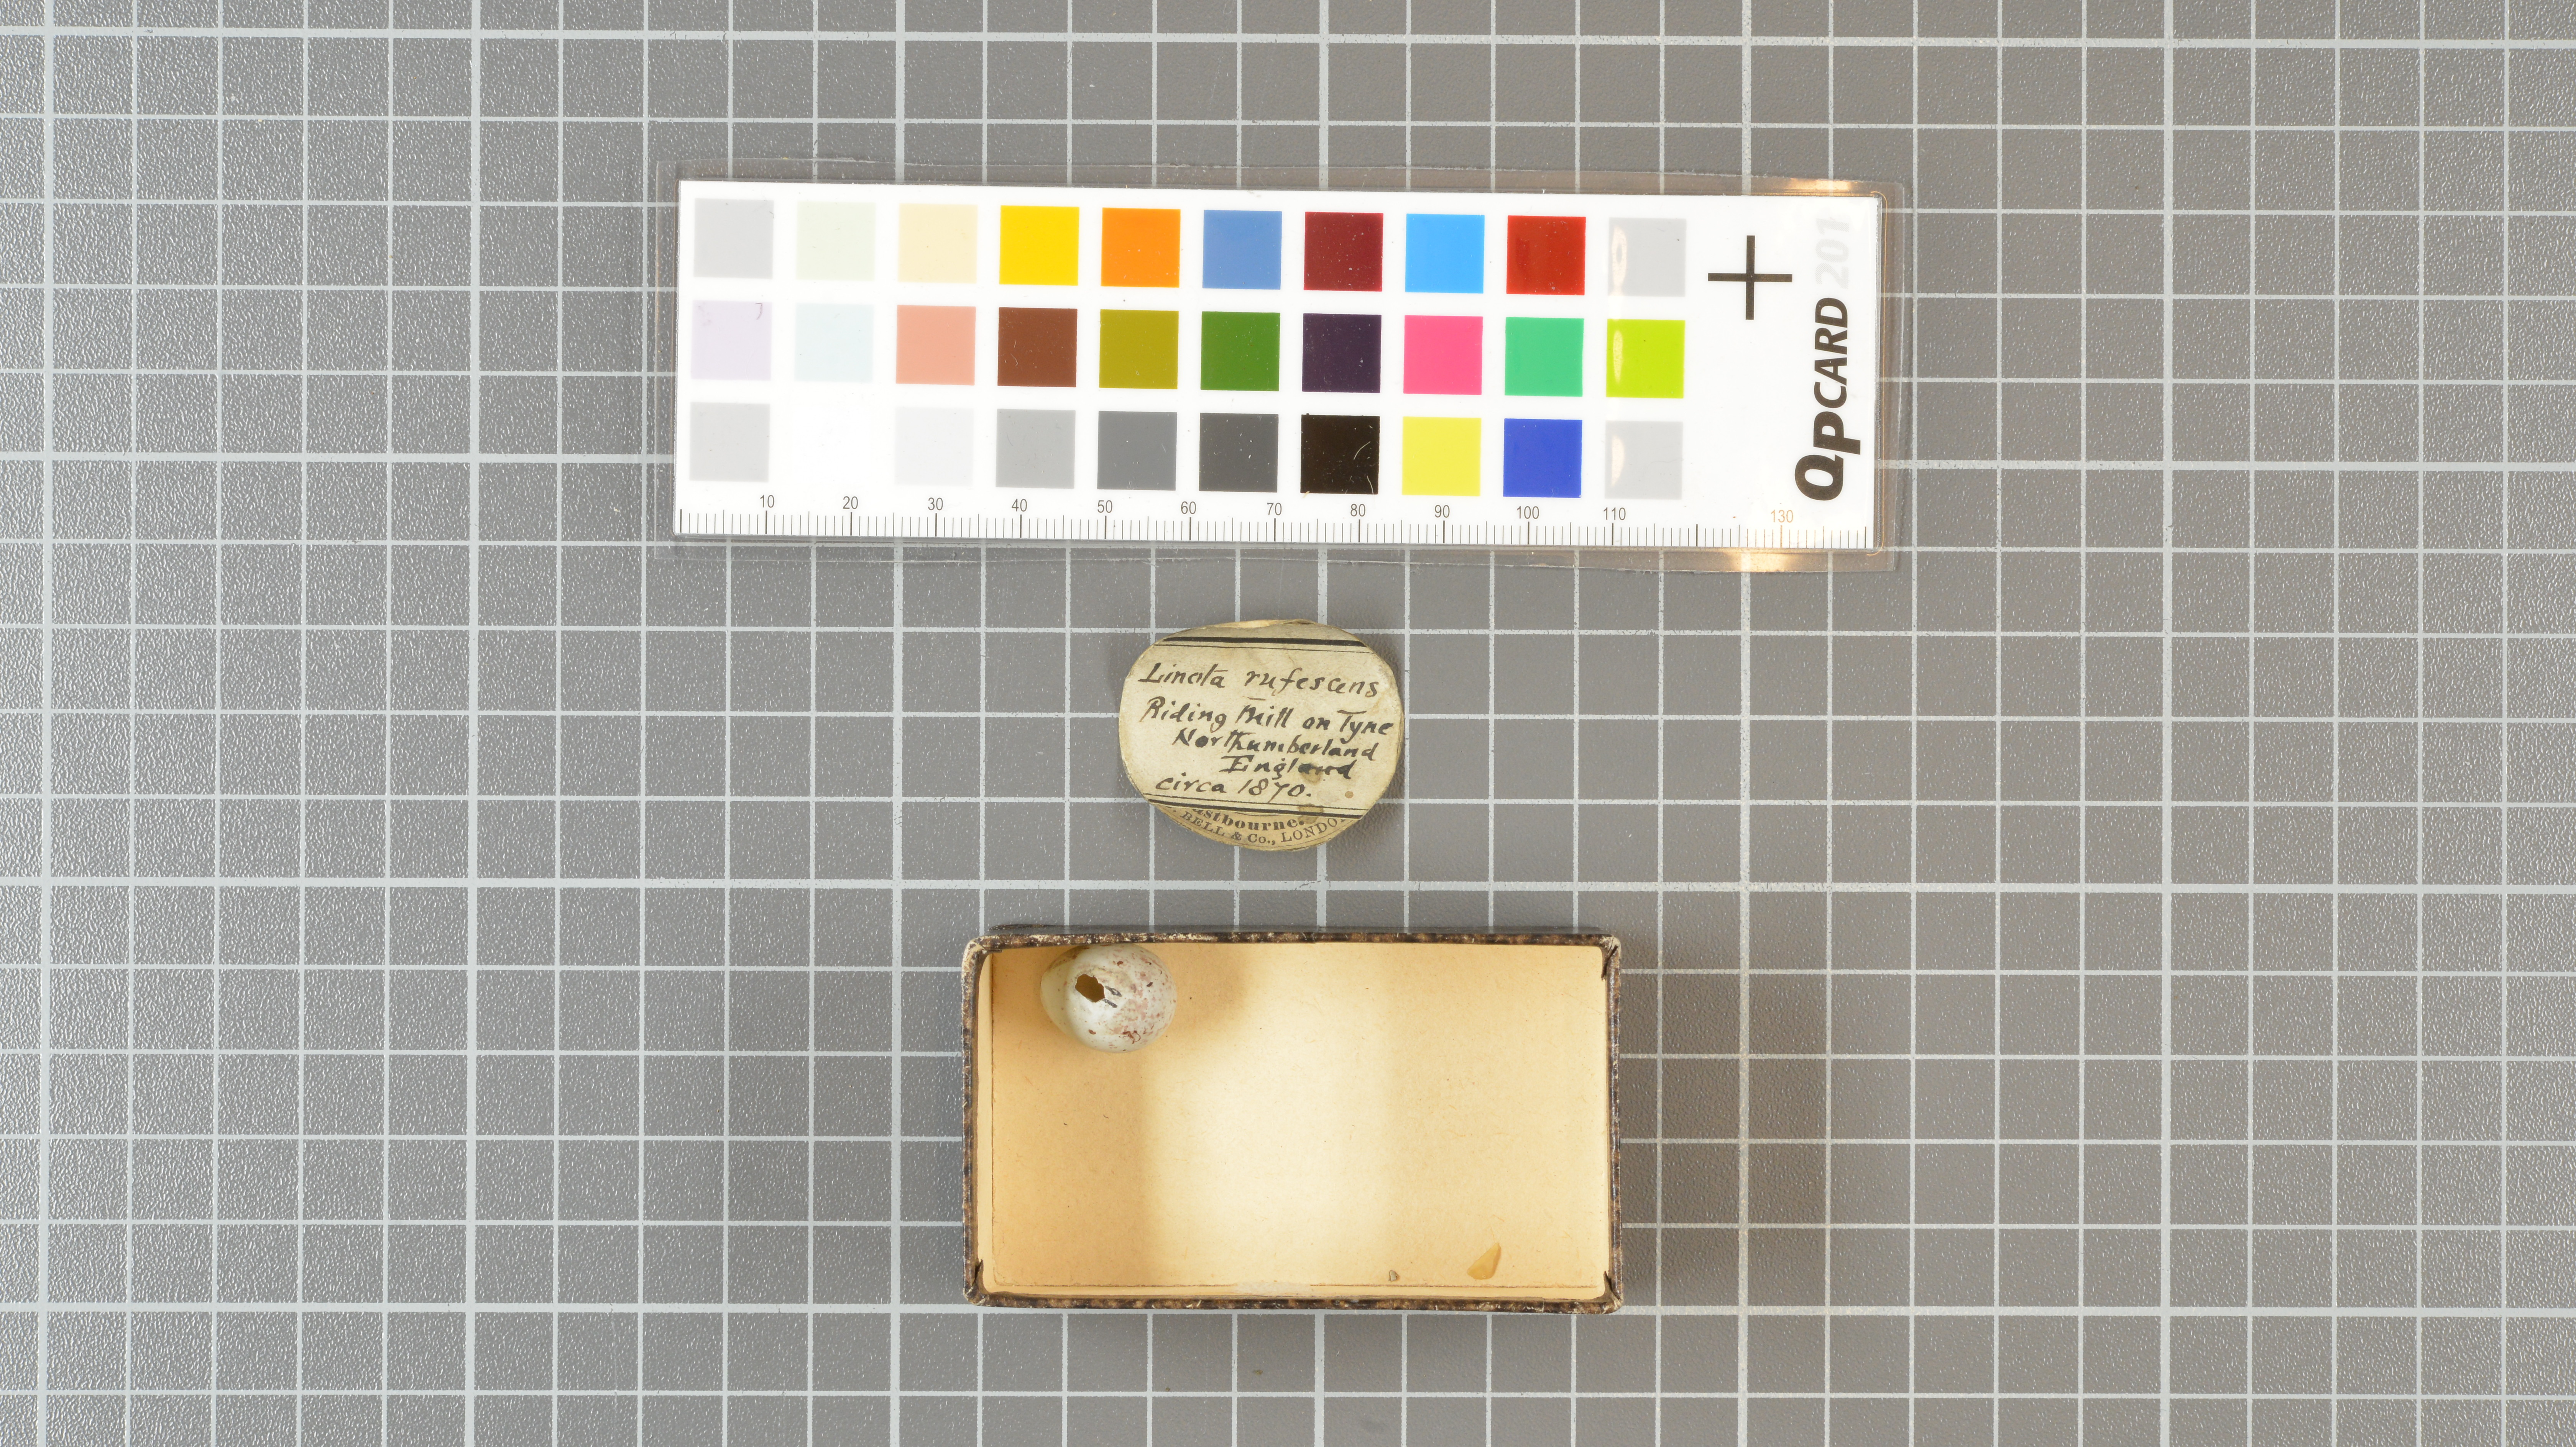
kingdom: Animalia
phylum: Chordata
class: Aves
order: Passeriformes
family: Fringillidae
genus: Acanthis
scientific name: Acanthis flammea
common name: Common redpoll
